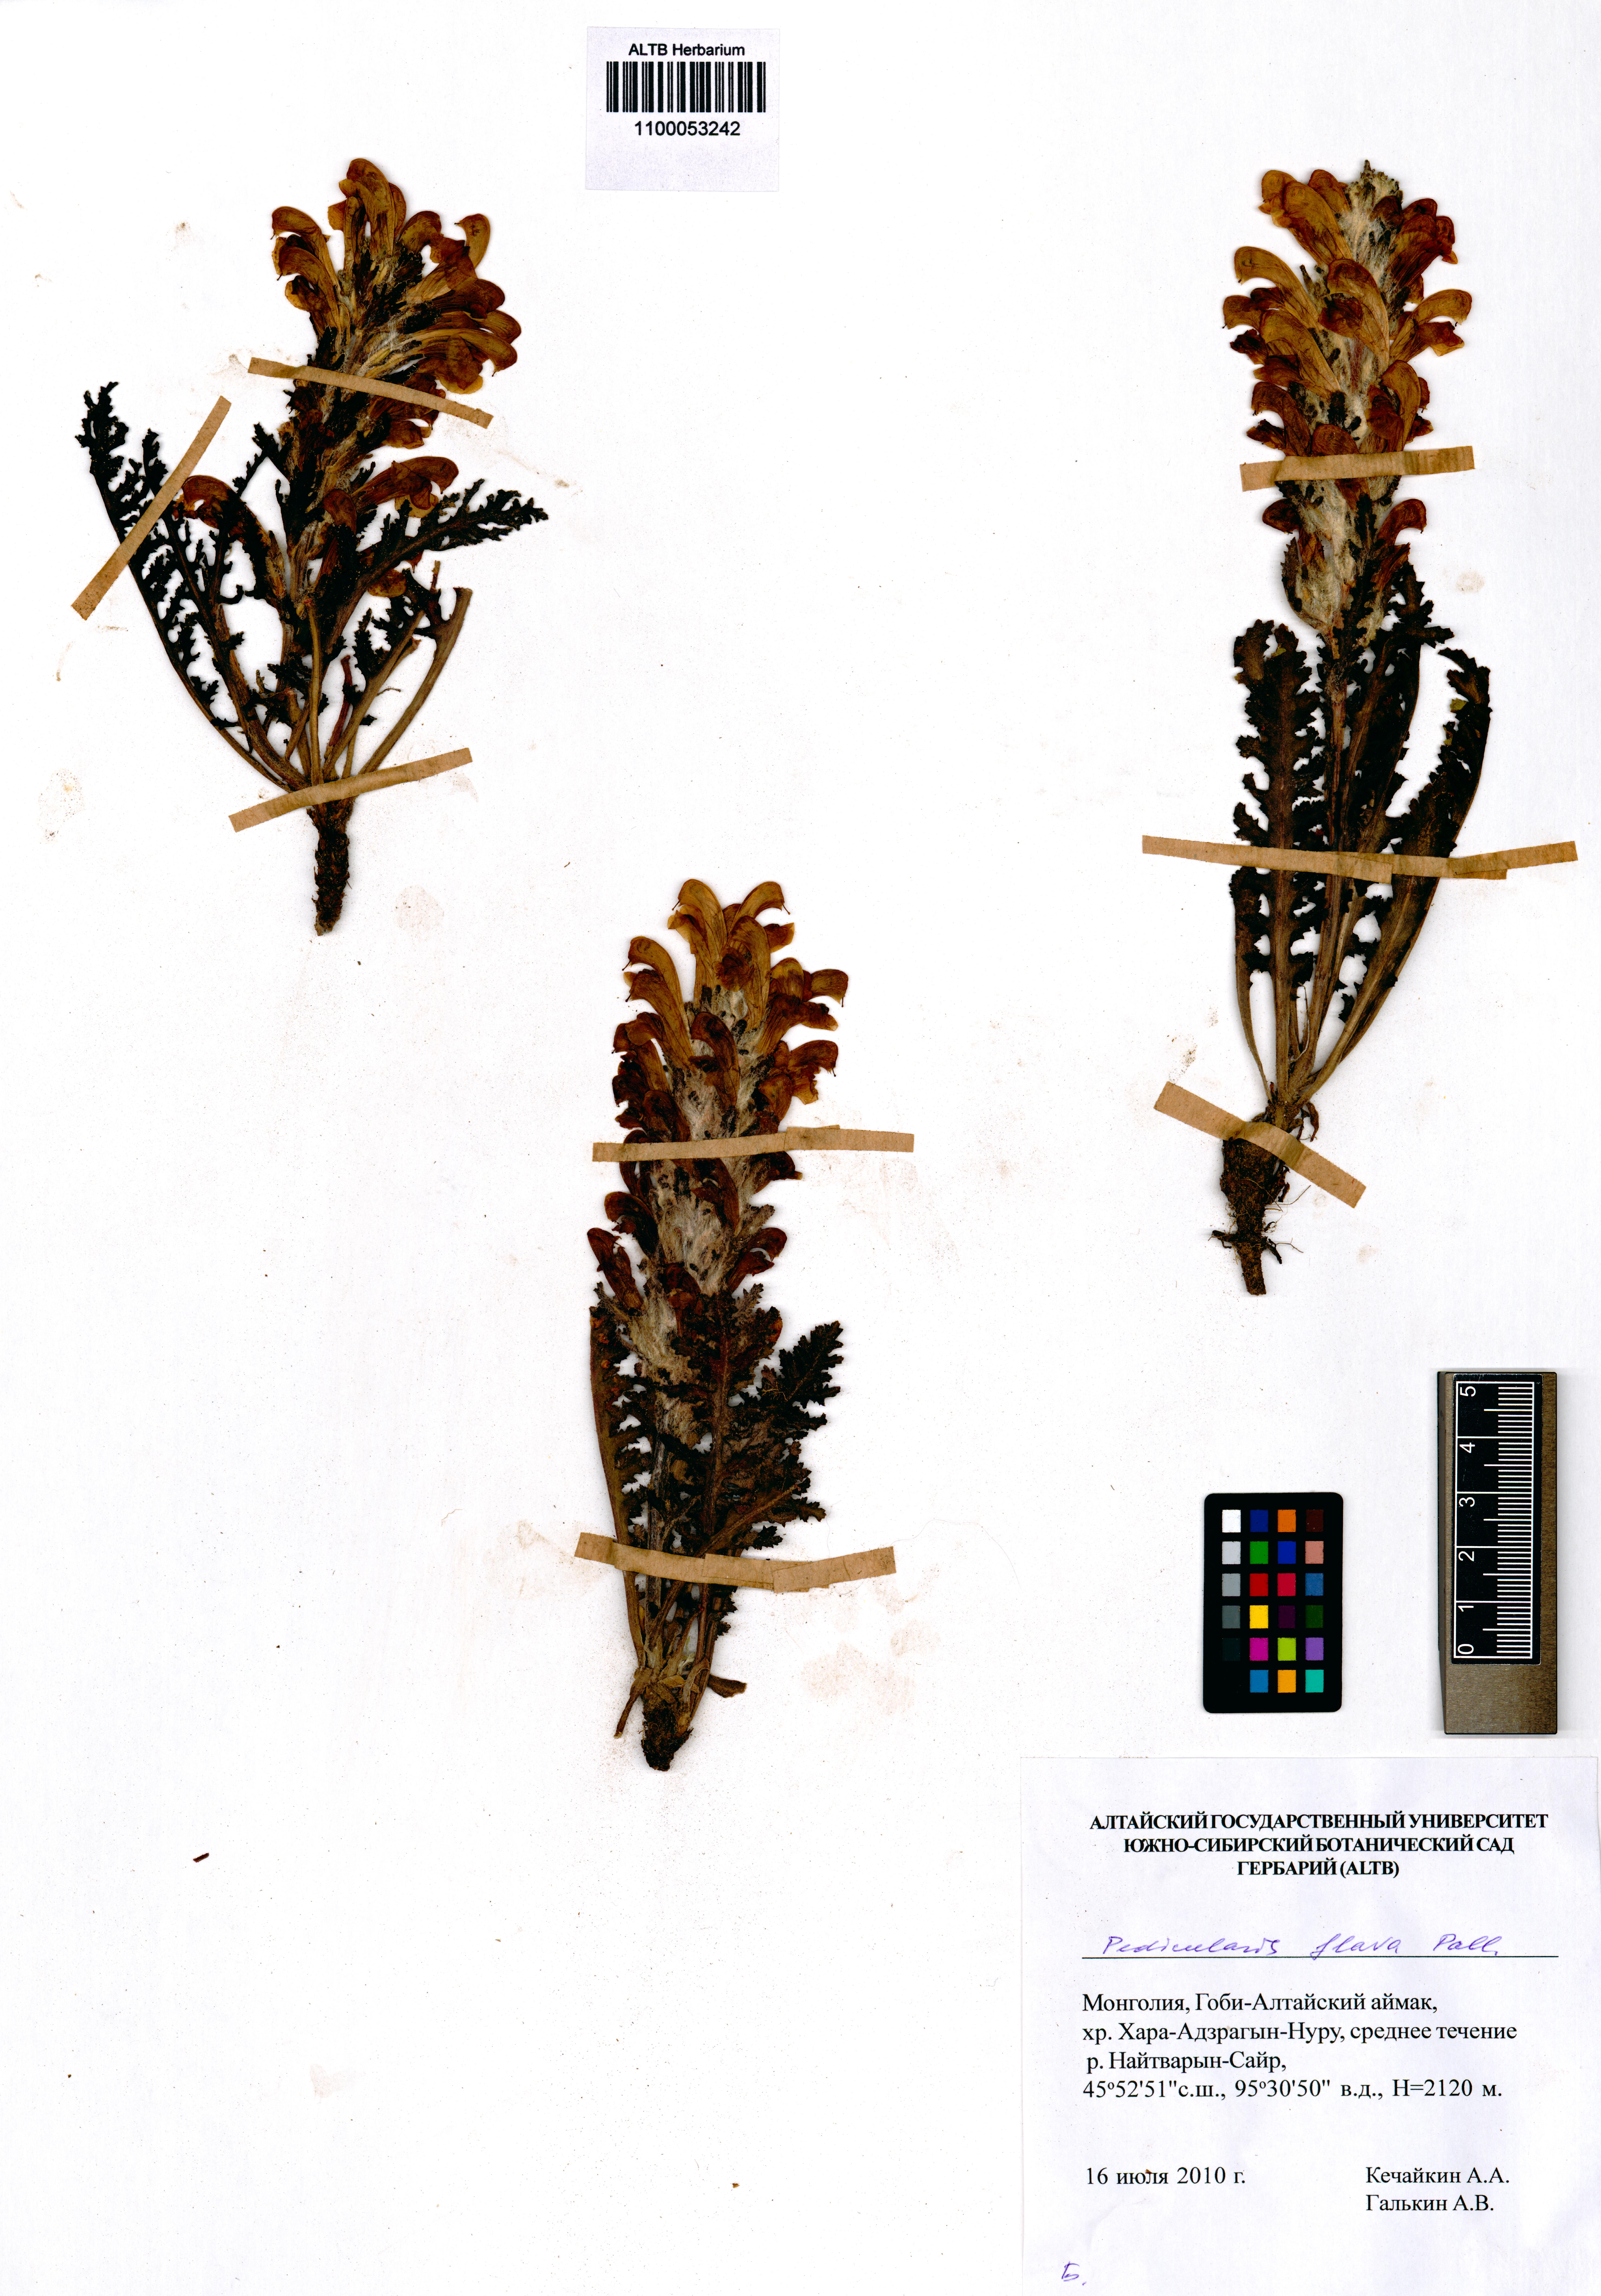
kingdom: Plantae
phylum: Tracheophyta
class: Magnoliopsida
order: Lamiales
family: Orobanchaceae
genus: Pedicularis
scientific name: Pedicularis flava
